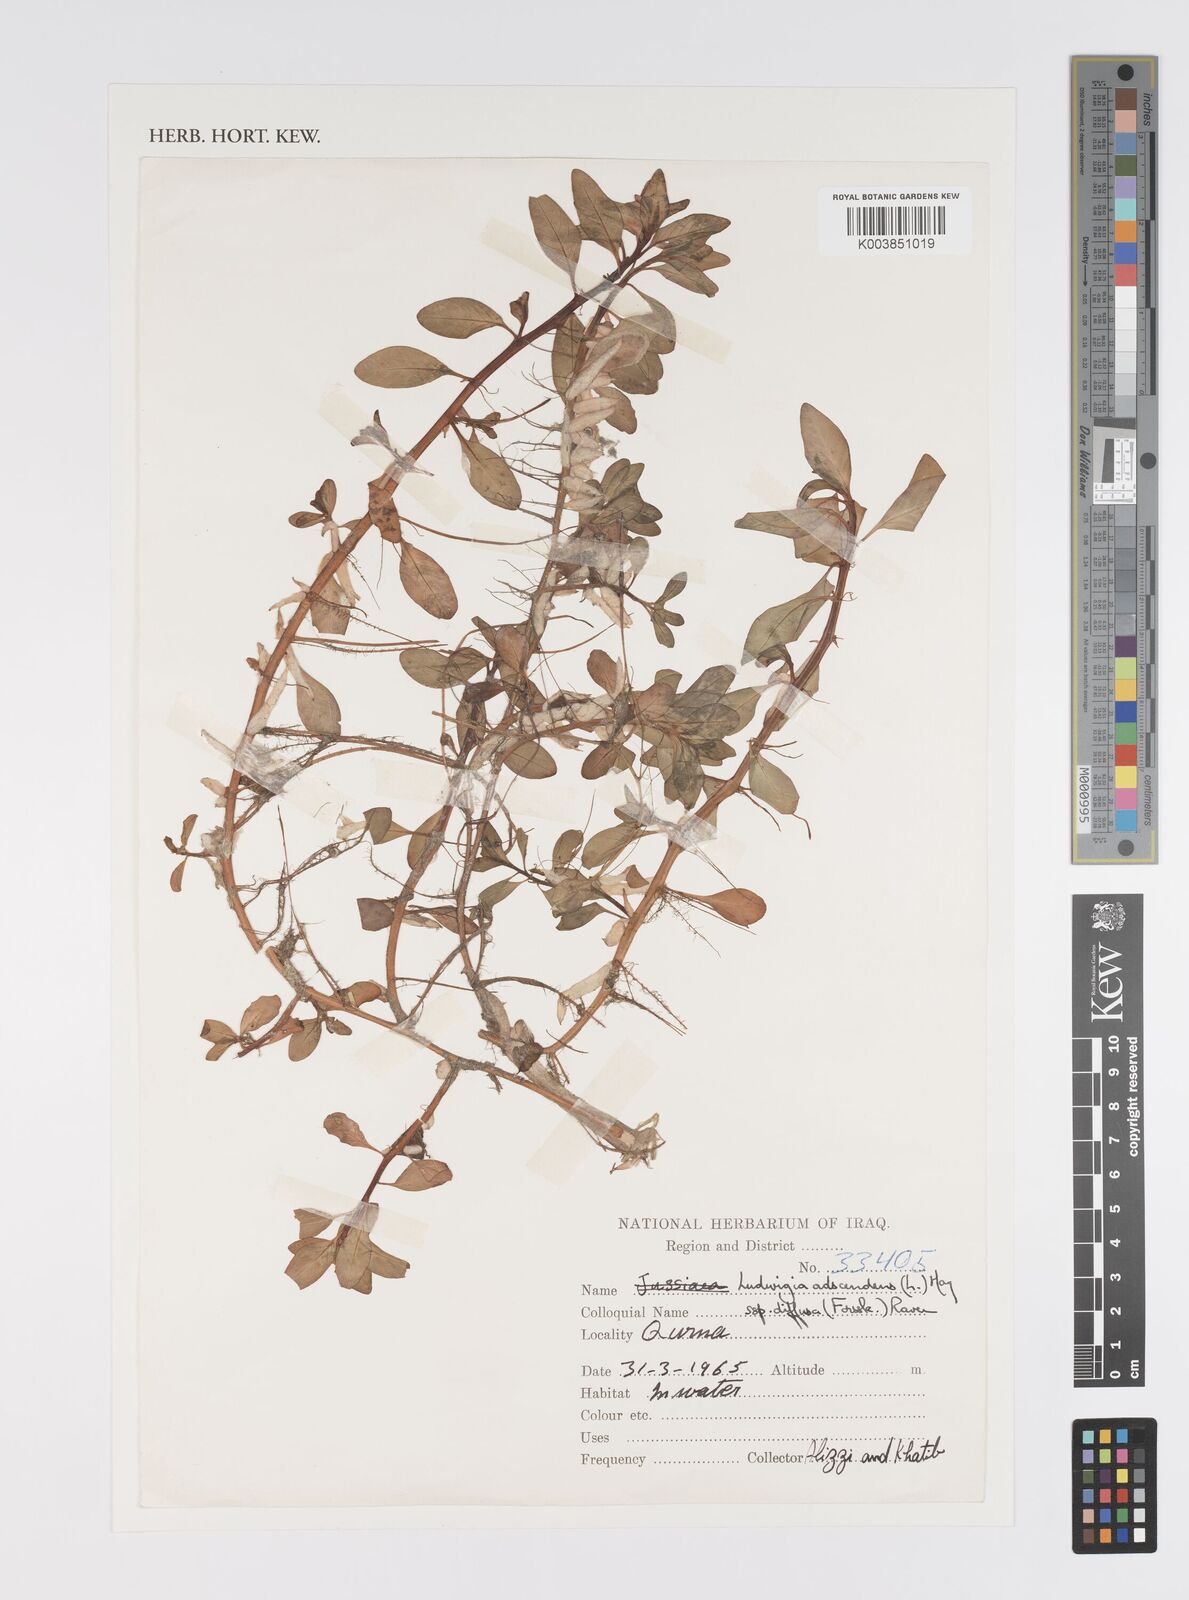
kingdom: Plantae
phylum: Tracheophyta
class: Magnoliopsida
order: Myrtales
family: Onagraceae
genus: Ludwigia
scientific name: Ludwigia adscendens
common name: Creeping water primrose
